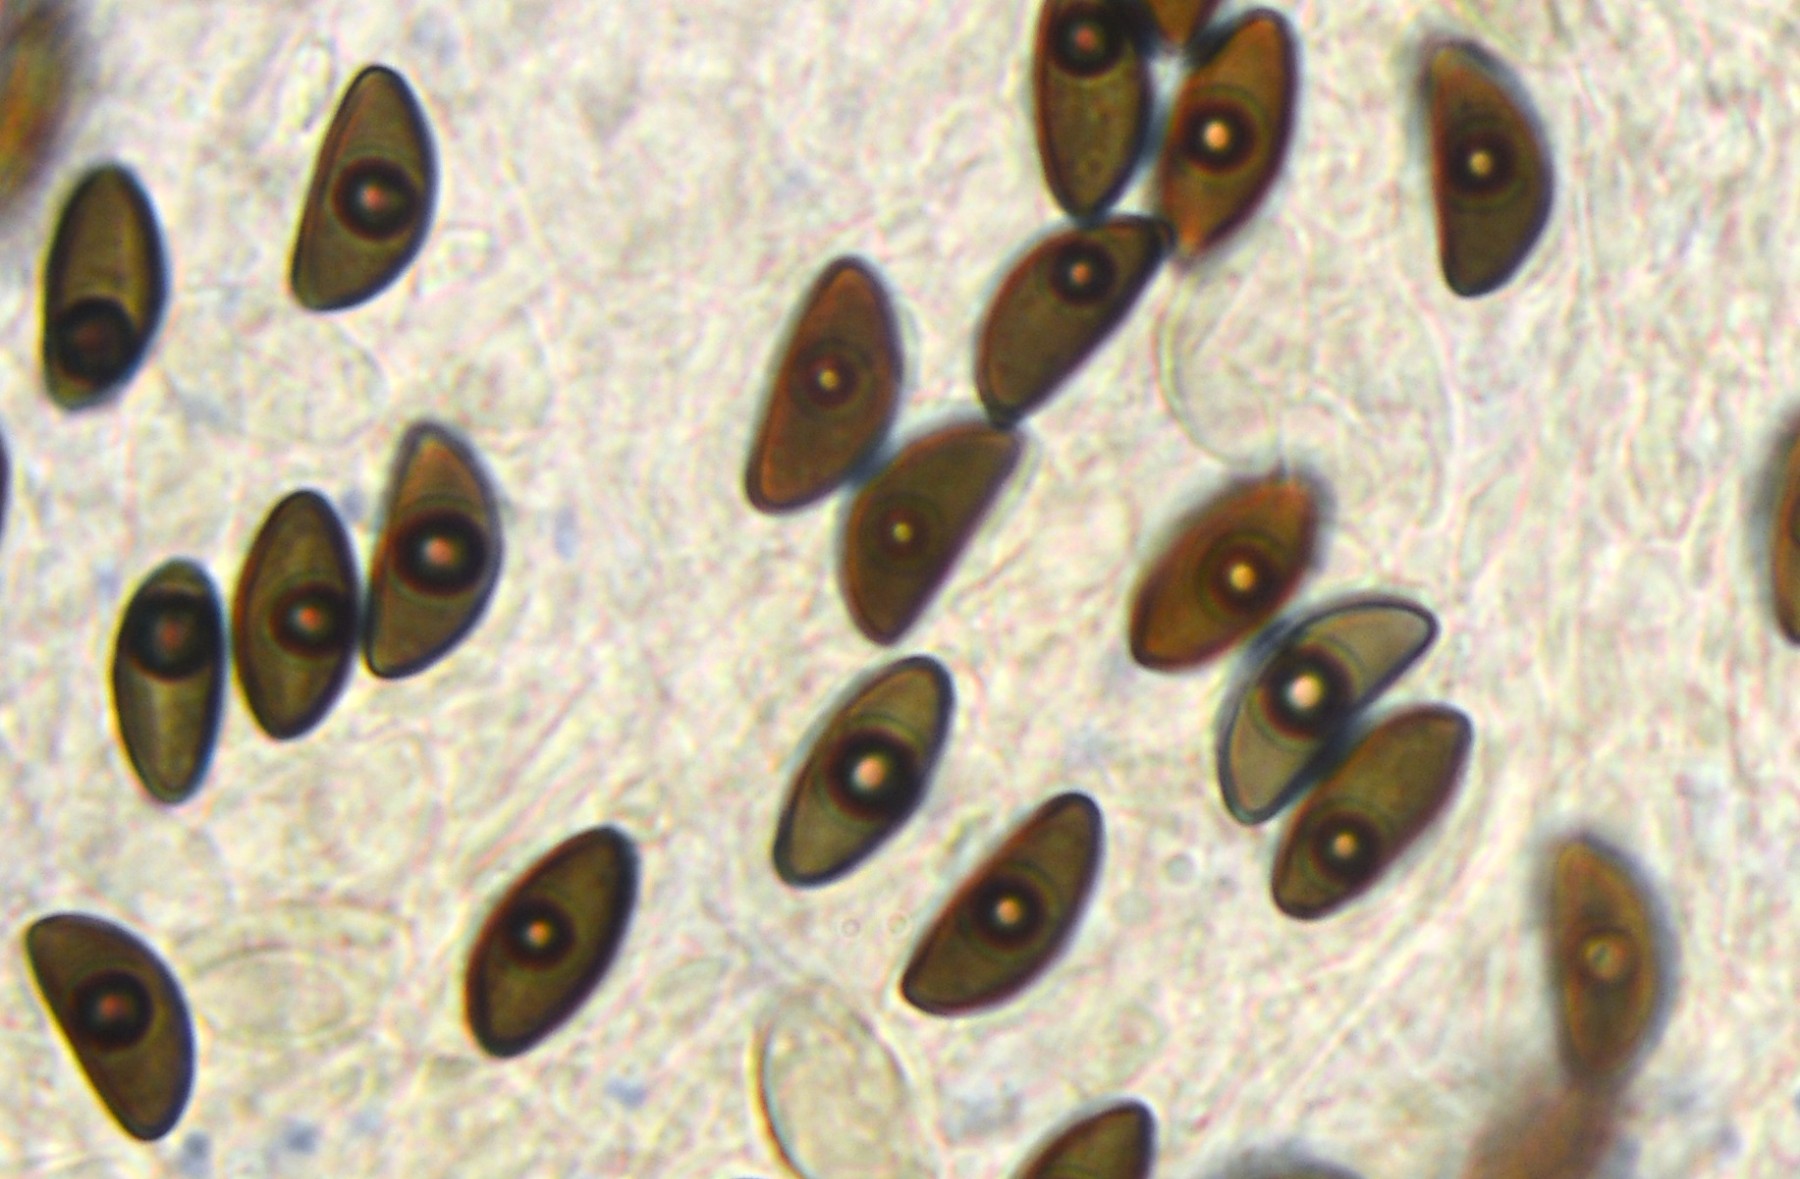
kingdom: Fungi
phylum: Ascomycota
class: Sordariomycetes
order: Xylariales
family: Hypoxylaceae
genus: Hypoxylon
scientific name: Hypoxylon petriniae
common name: nedsænket kulbær
